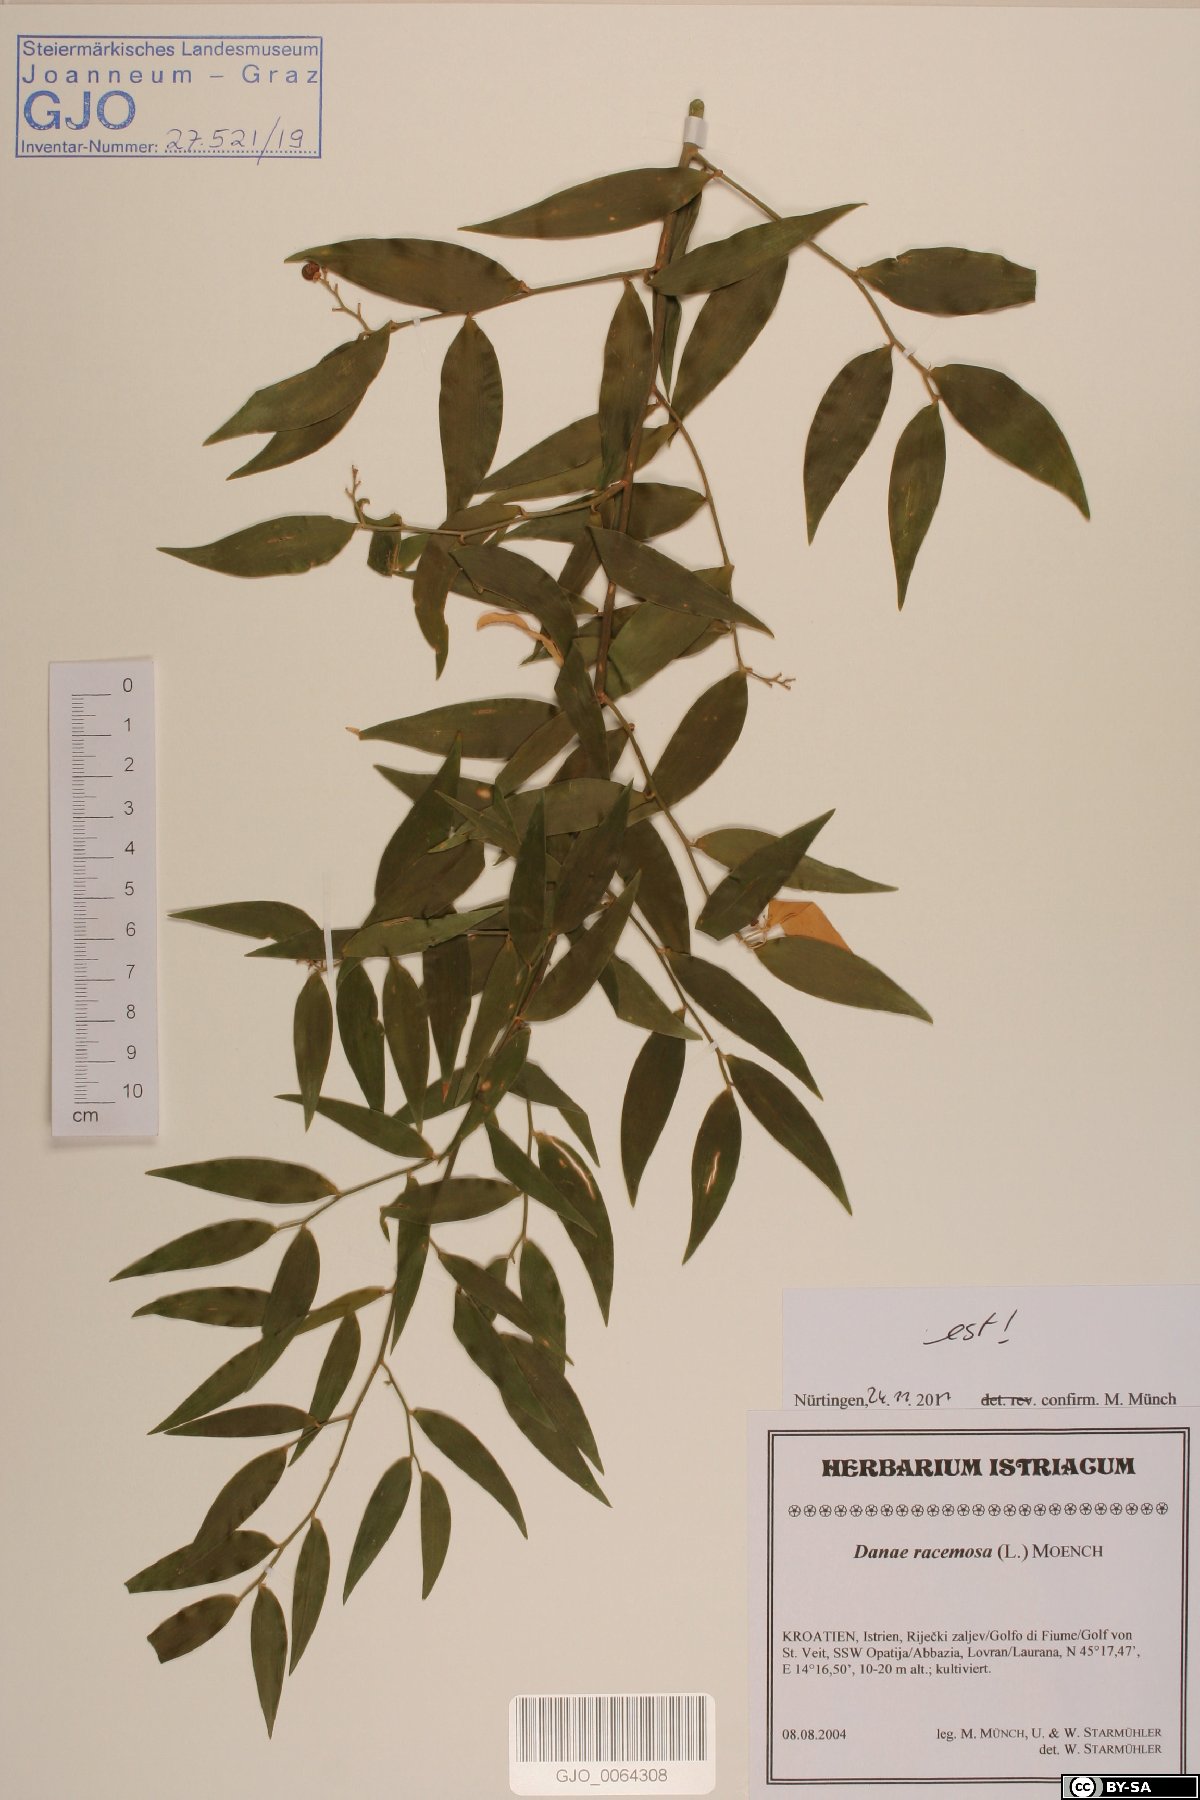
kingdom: Plantae
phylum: Tracheophyta
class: Liliopsida
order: Asparagales
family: Asparagaceae
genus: Danae
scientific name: Danae racemosa
